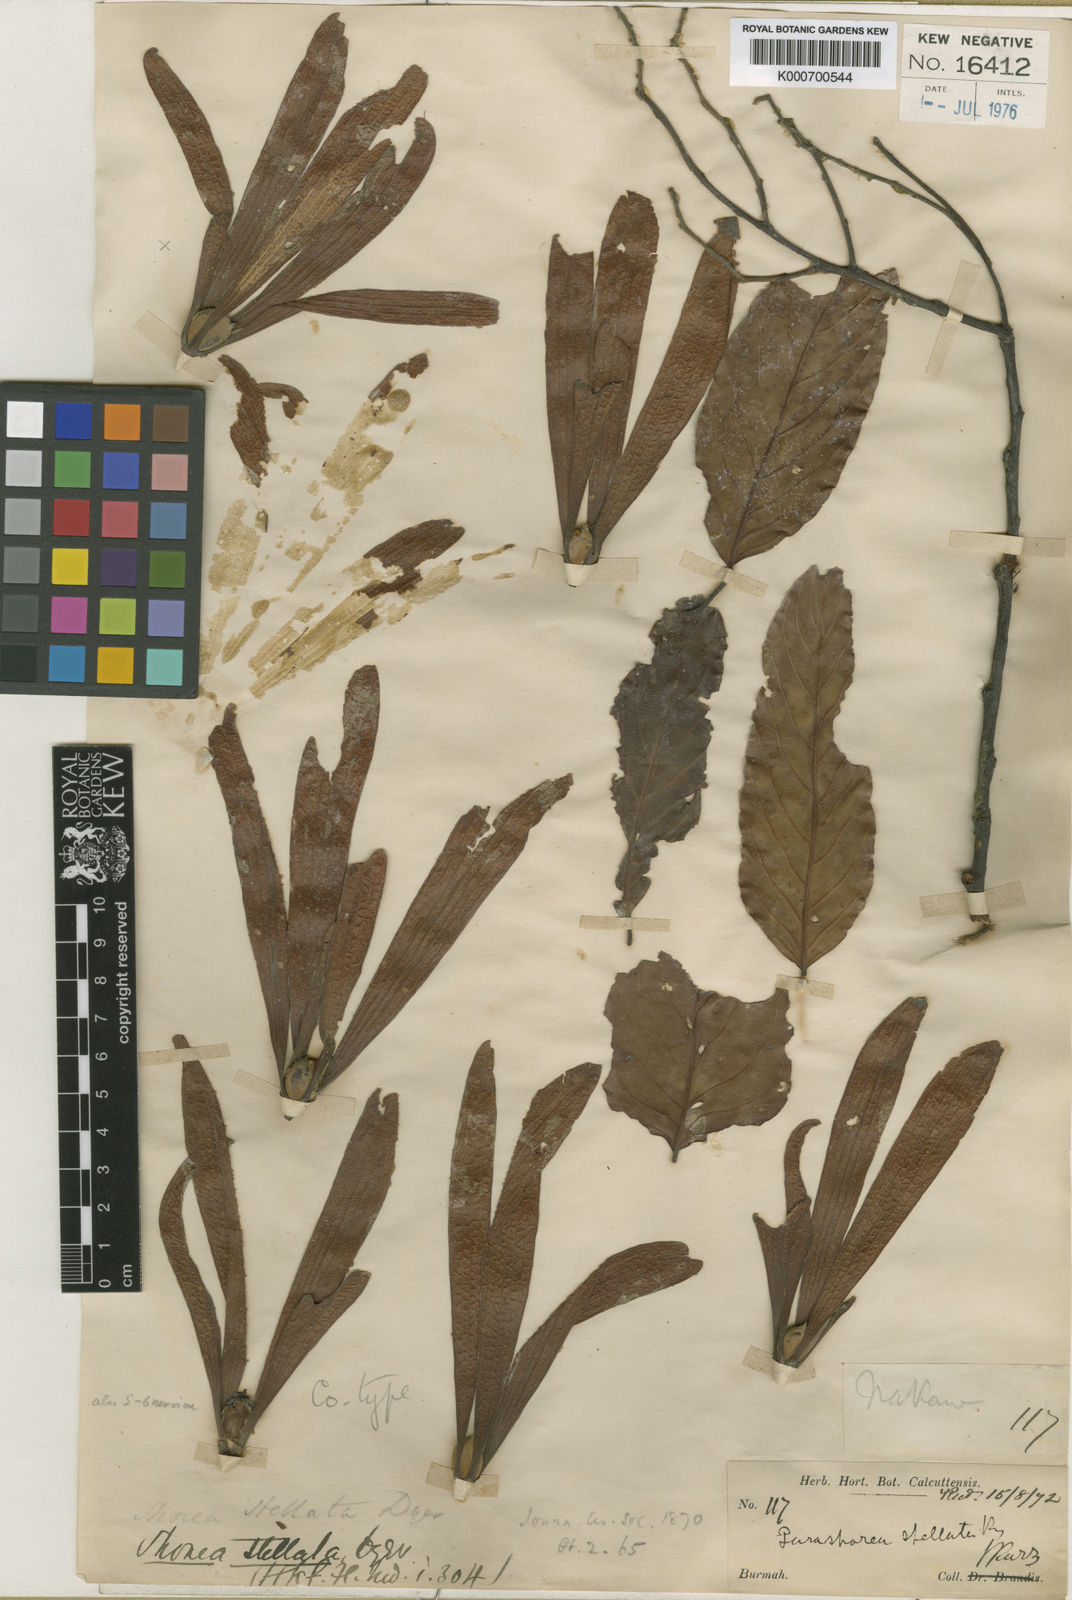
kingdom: Plantae
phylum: Tracheophyta
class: Magnoliopsida
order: Malvales
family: Dipterocarpaceae
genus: Parashorea
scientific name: Parashorea stellata
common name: Thinkadu
